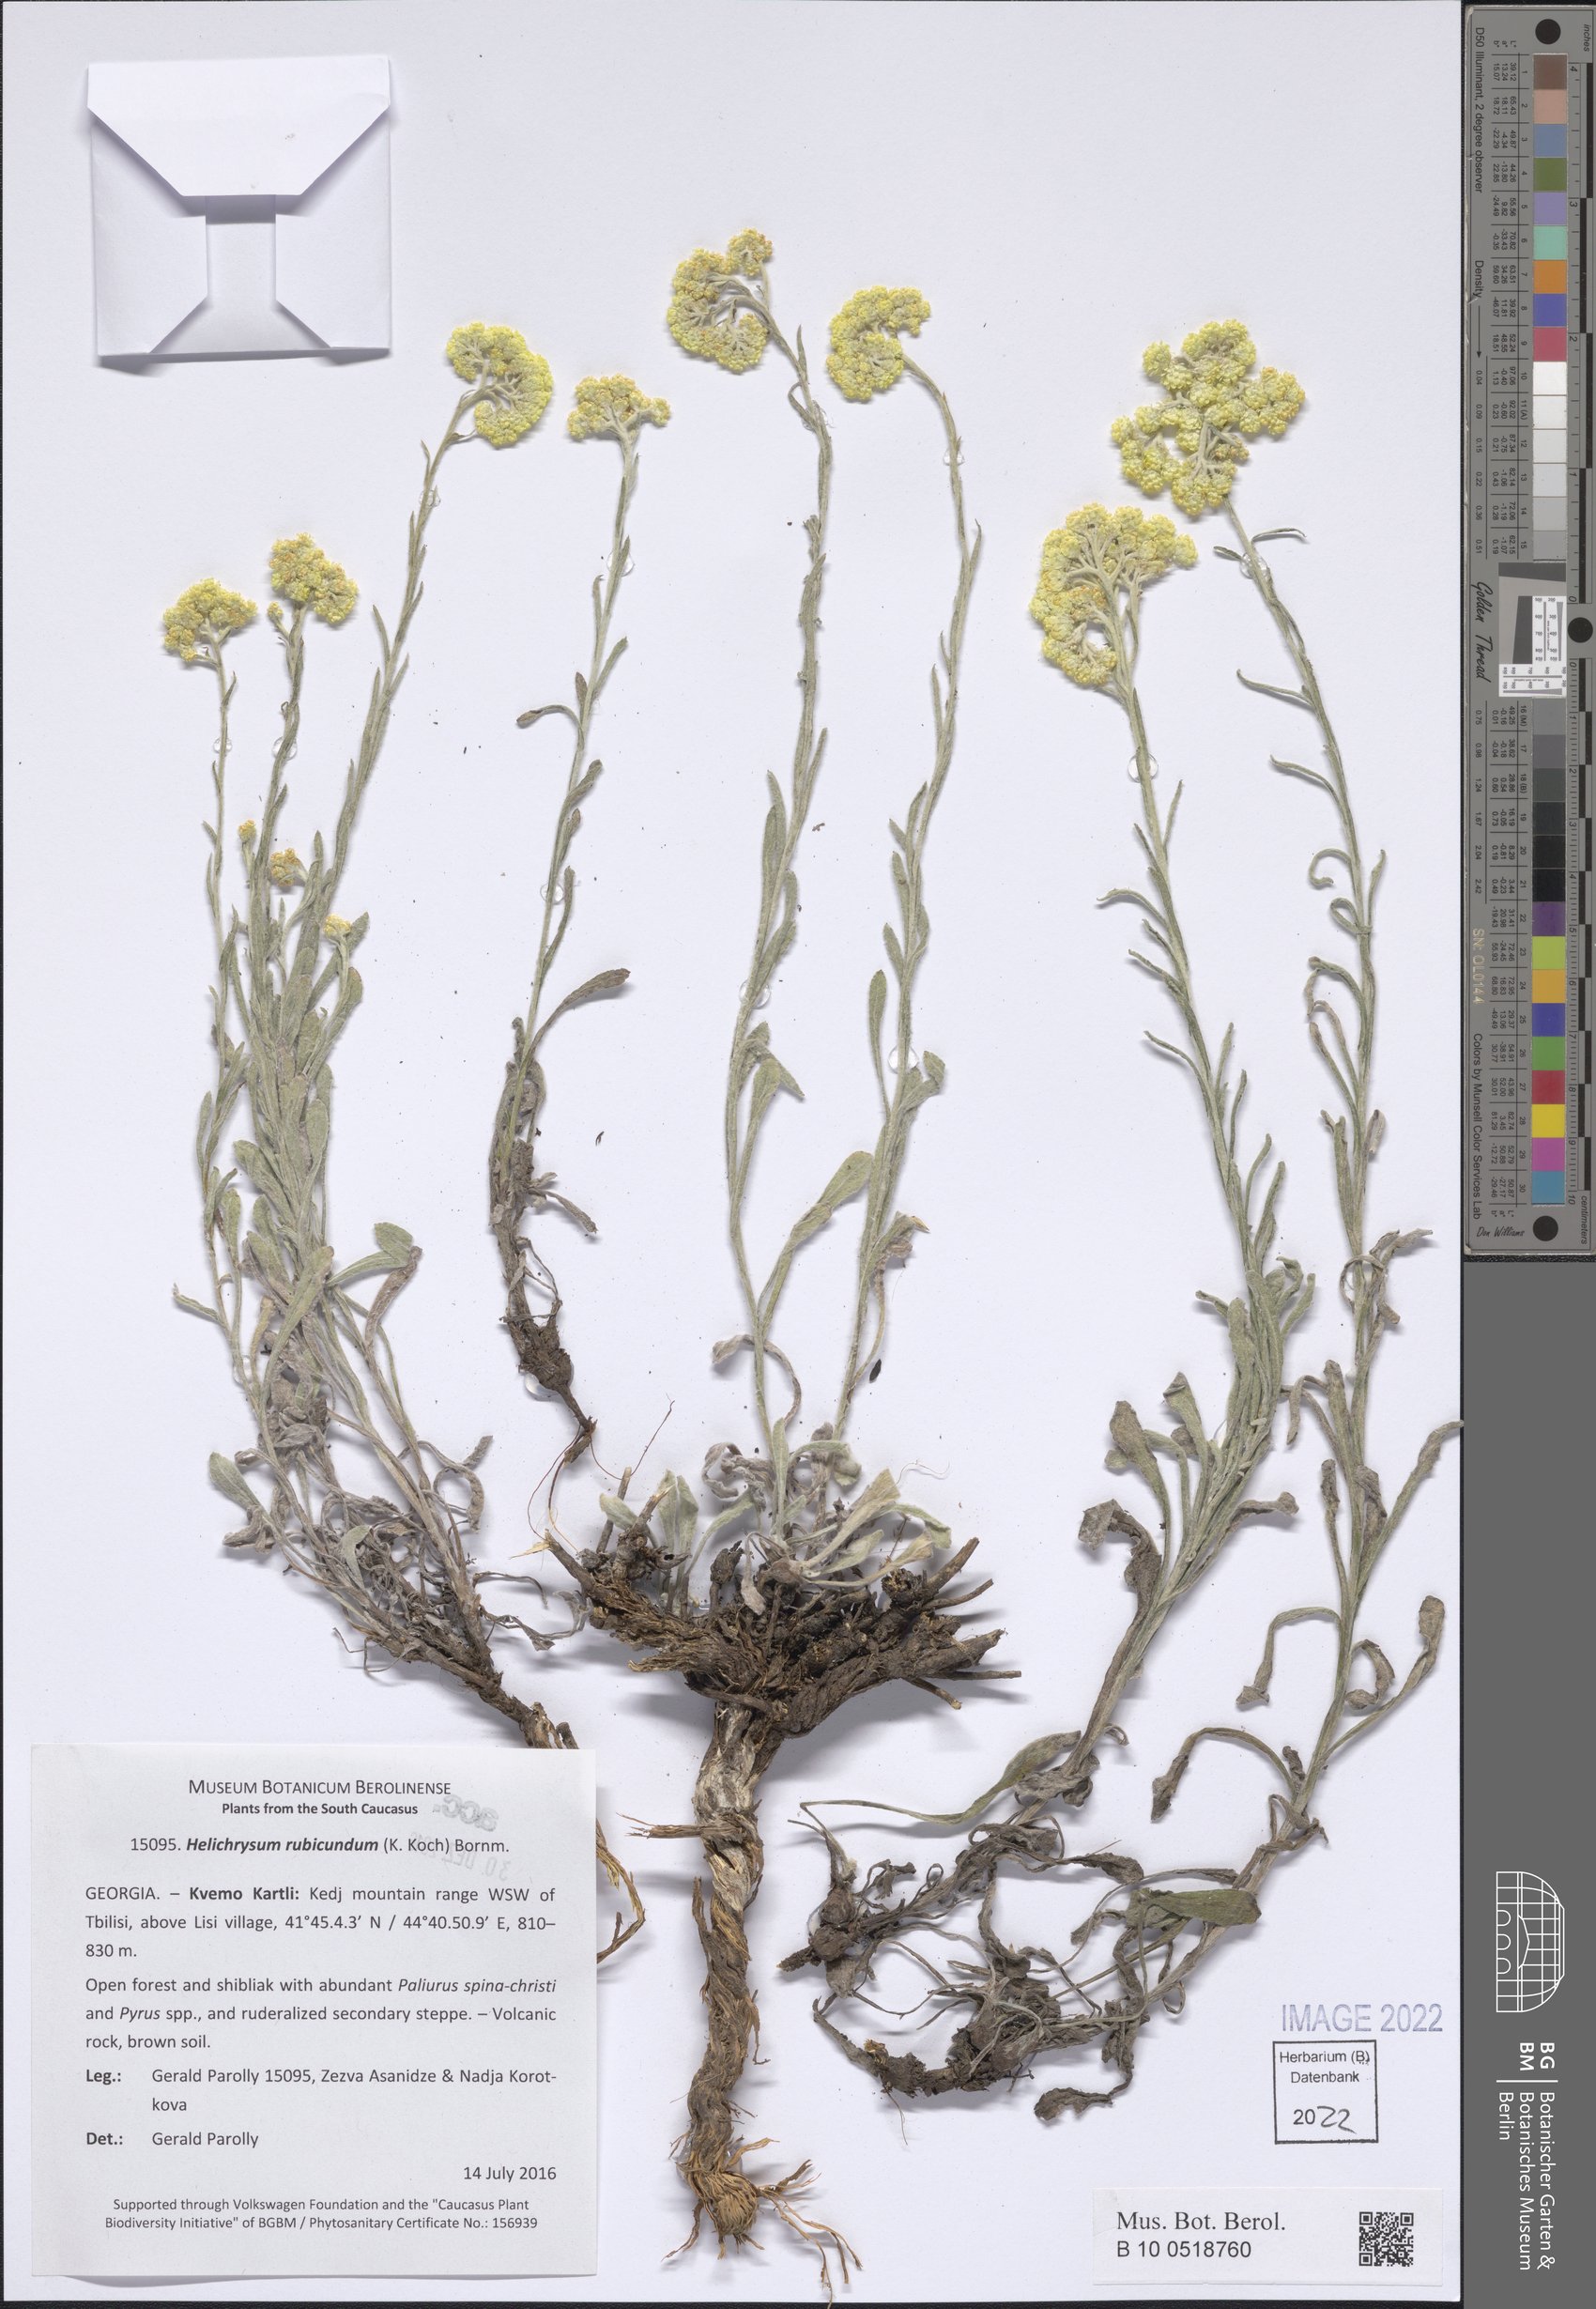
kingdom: Plantae
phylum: Tracheophyta
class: Magnoliopsida
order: Asterales
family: Asteraceae
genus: Helichrysum
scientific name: Helichrysum arenarium
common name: Strawflower
